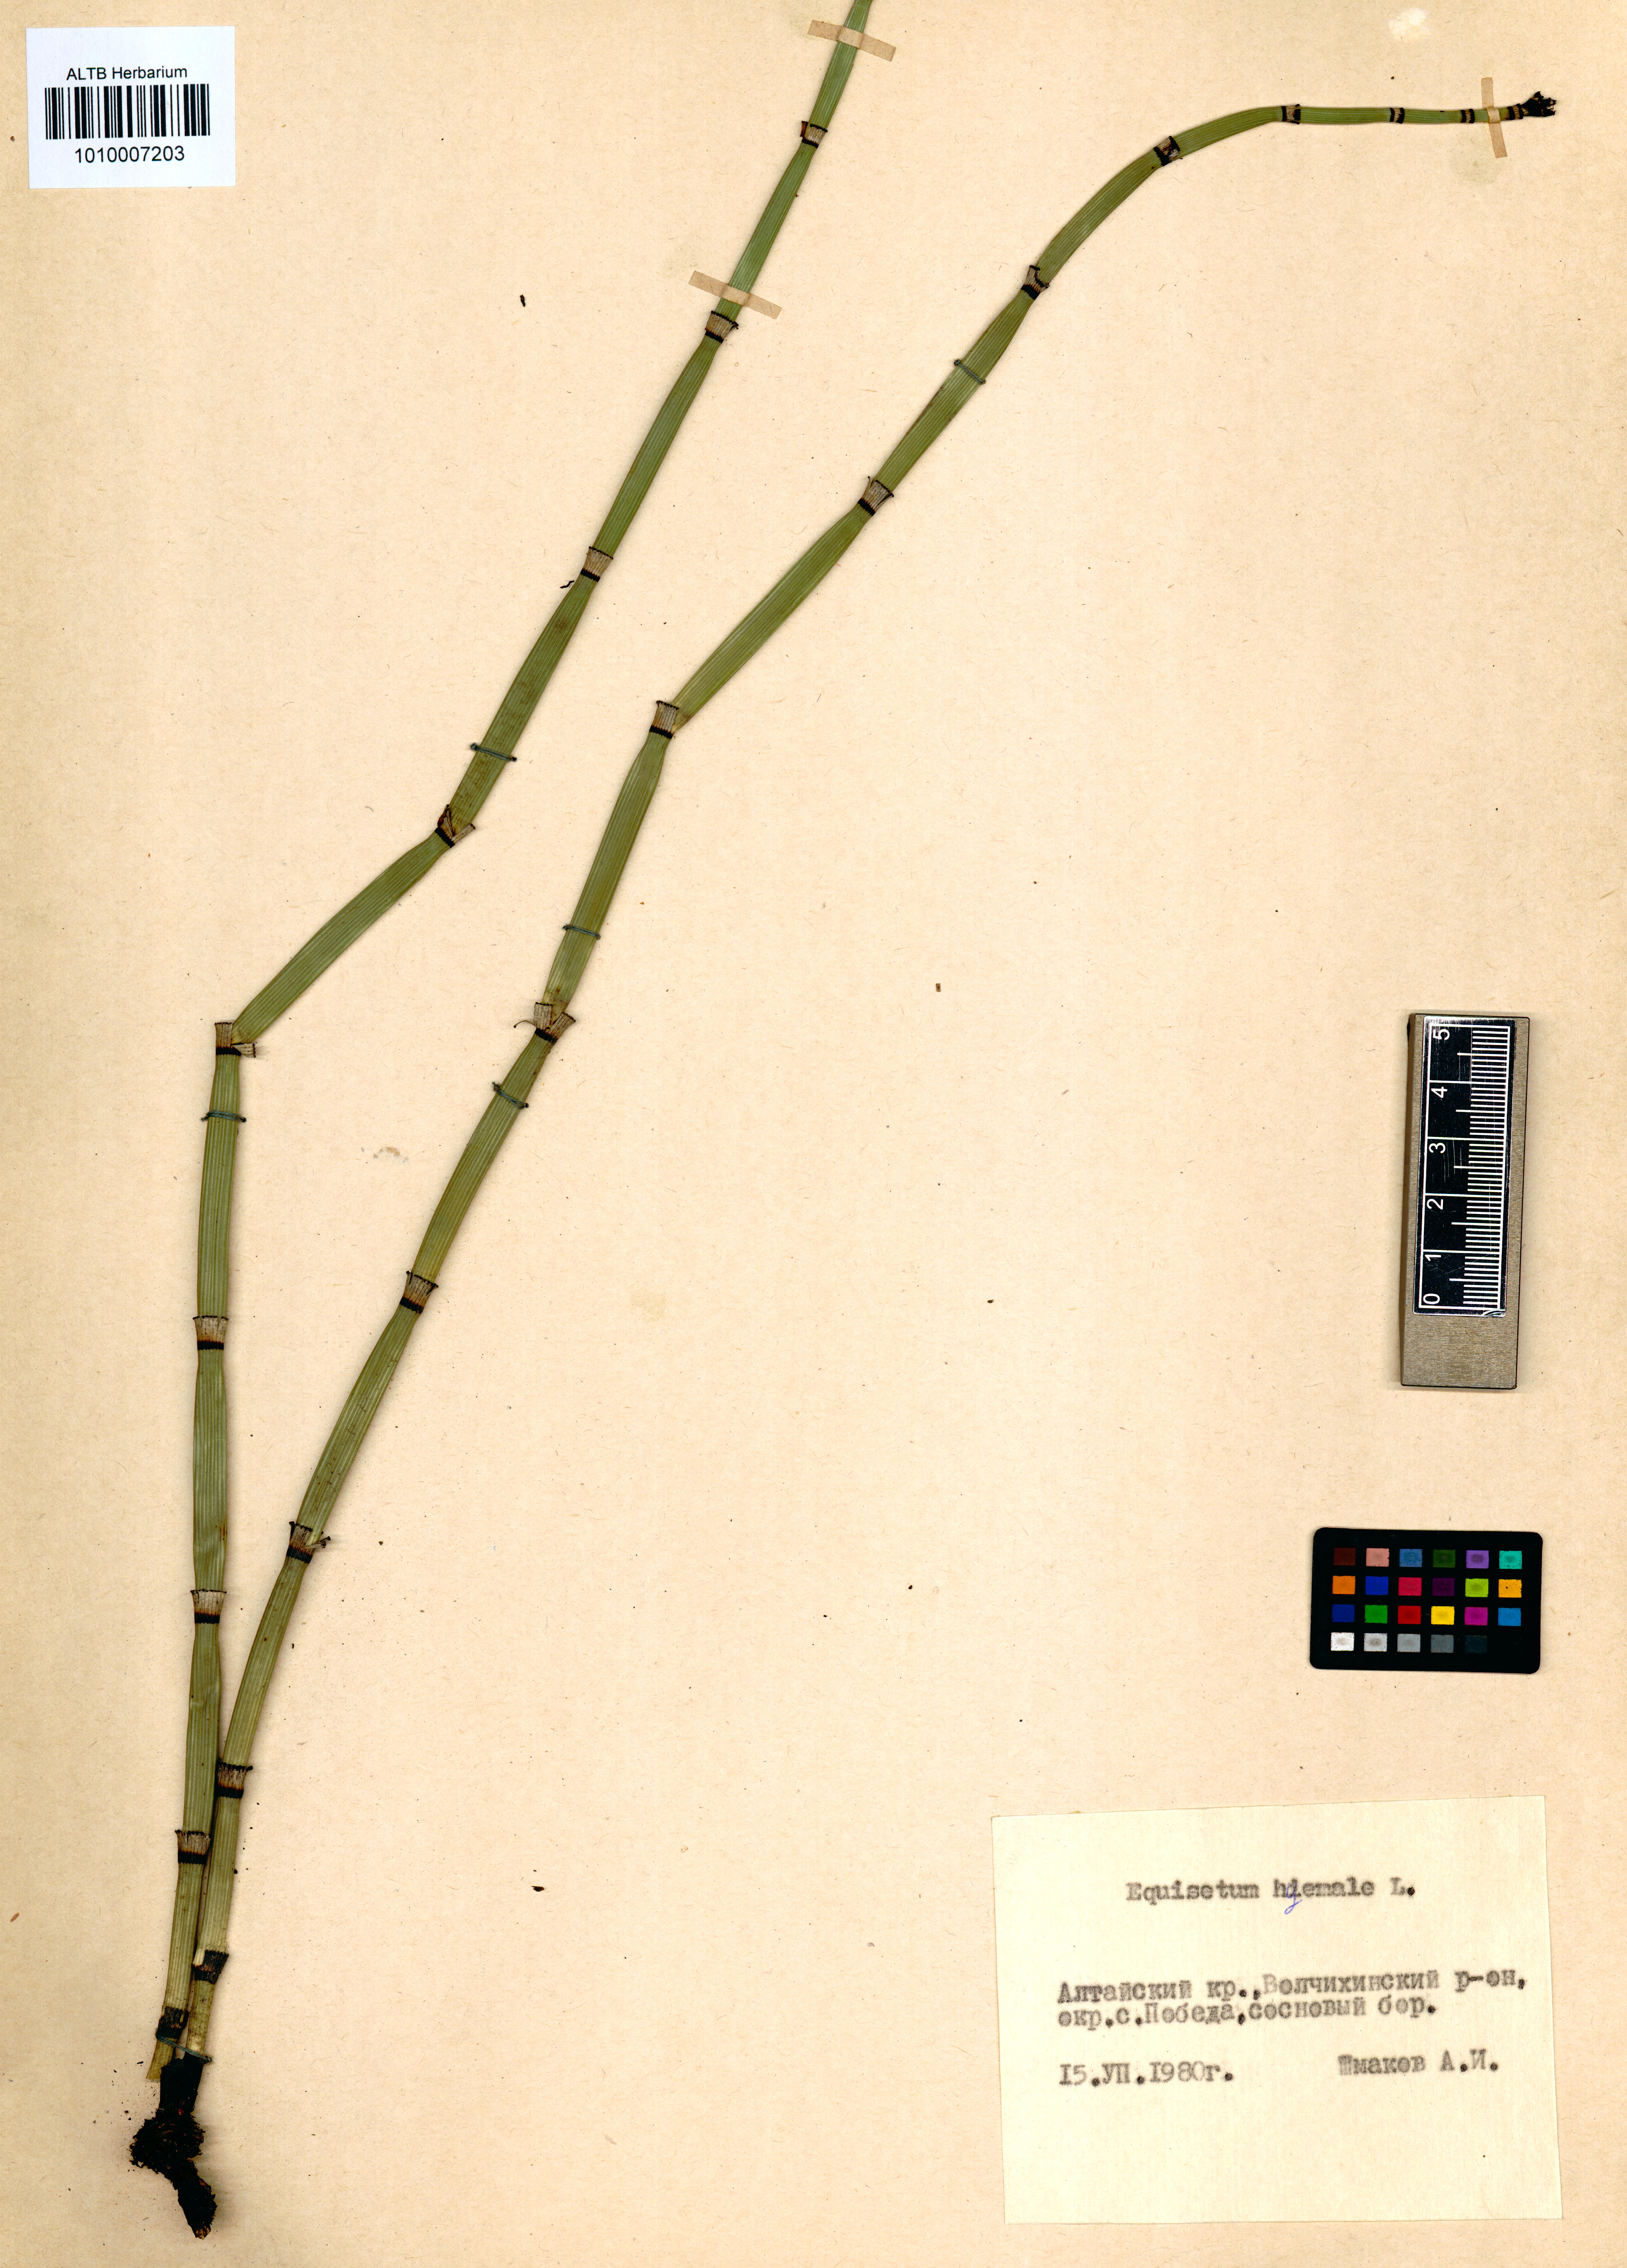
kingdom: Plantae
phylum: Tracheophyta
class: Polypodiopsida
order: Equisetales
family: Equisetaceae
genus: Equisetum
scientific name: Equisetum hyemale
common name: Rough horsetail
